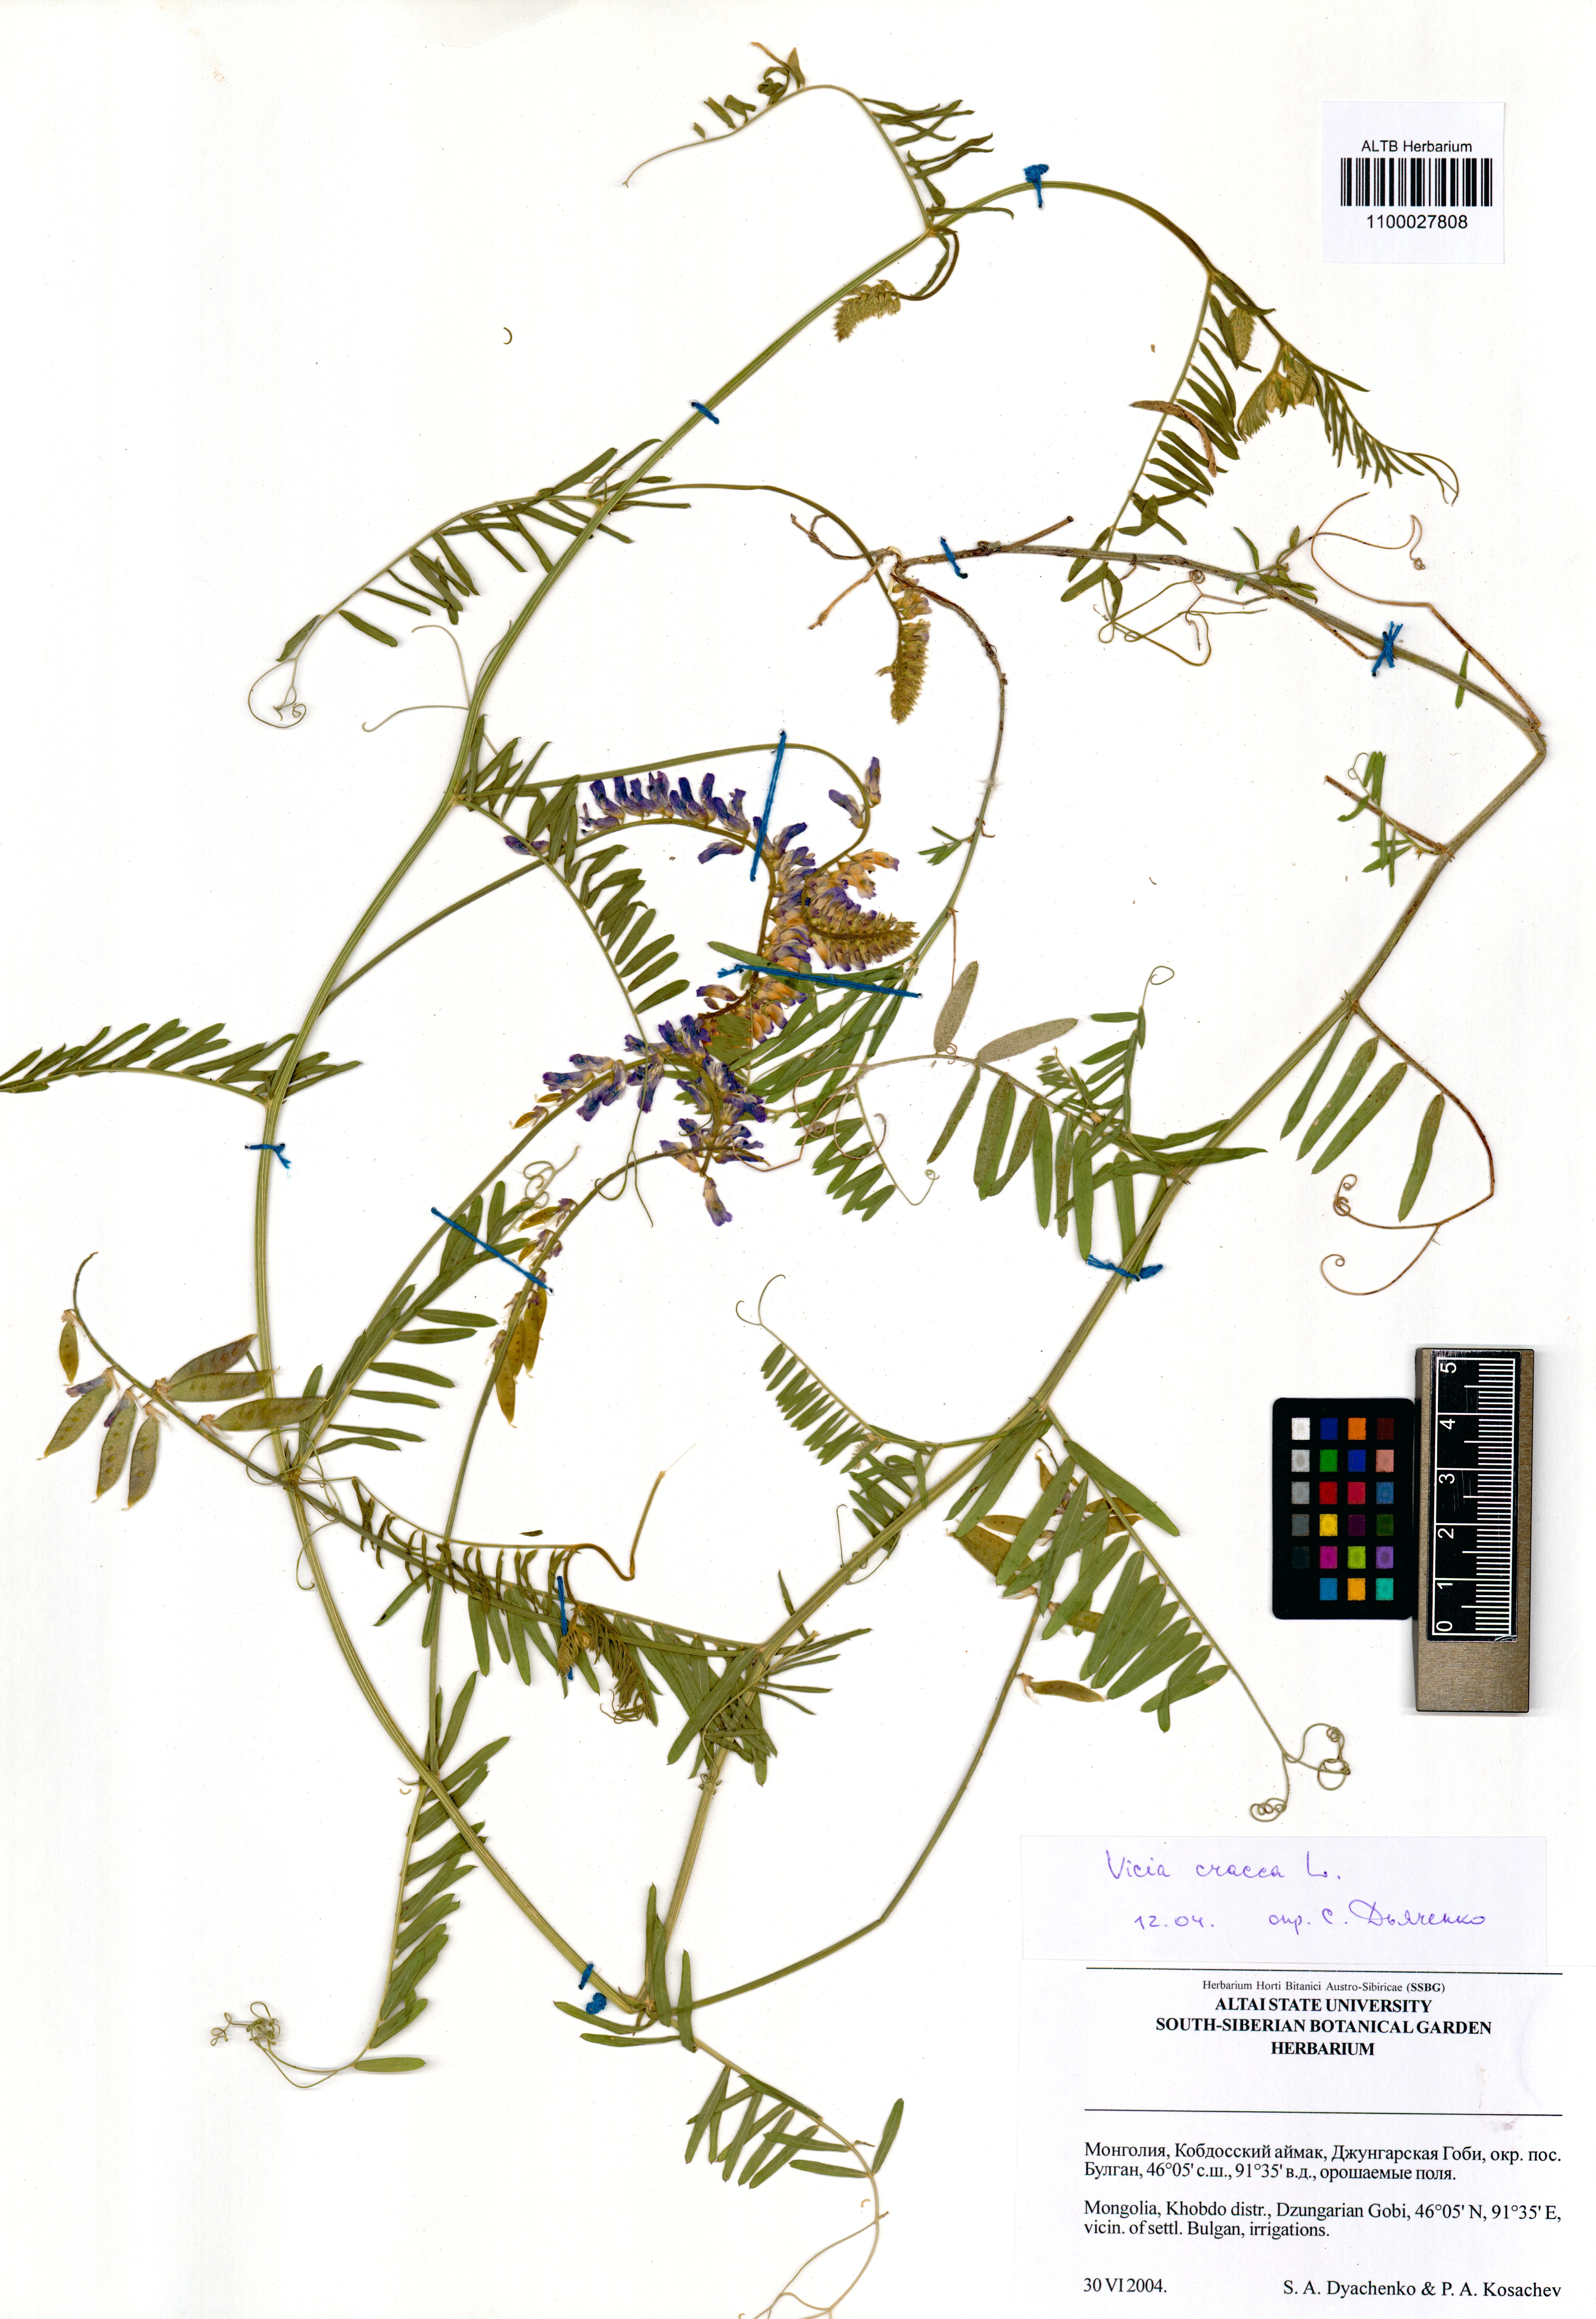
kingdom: Plantae
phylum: Tracheophyta
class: Magnoliopsida
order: Fabales
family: Fabaceae
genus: Vicia
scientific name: Vicia cracca
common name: Bird vetch
